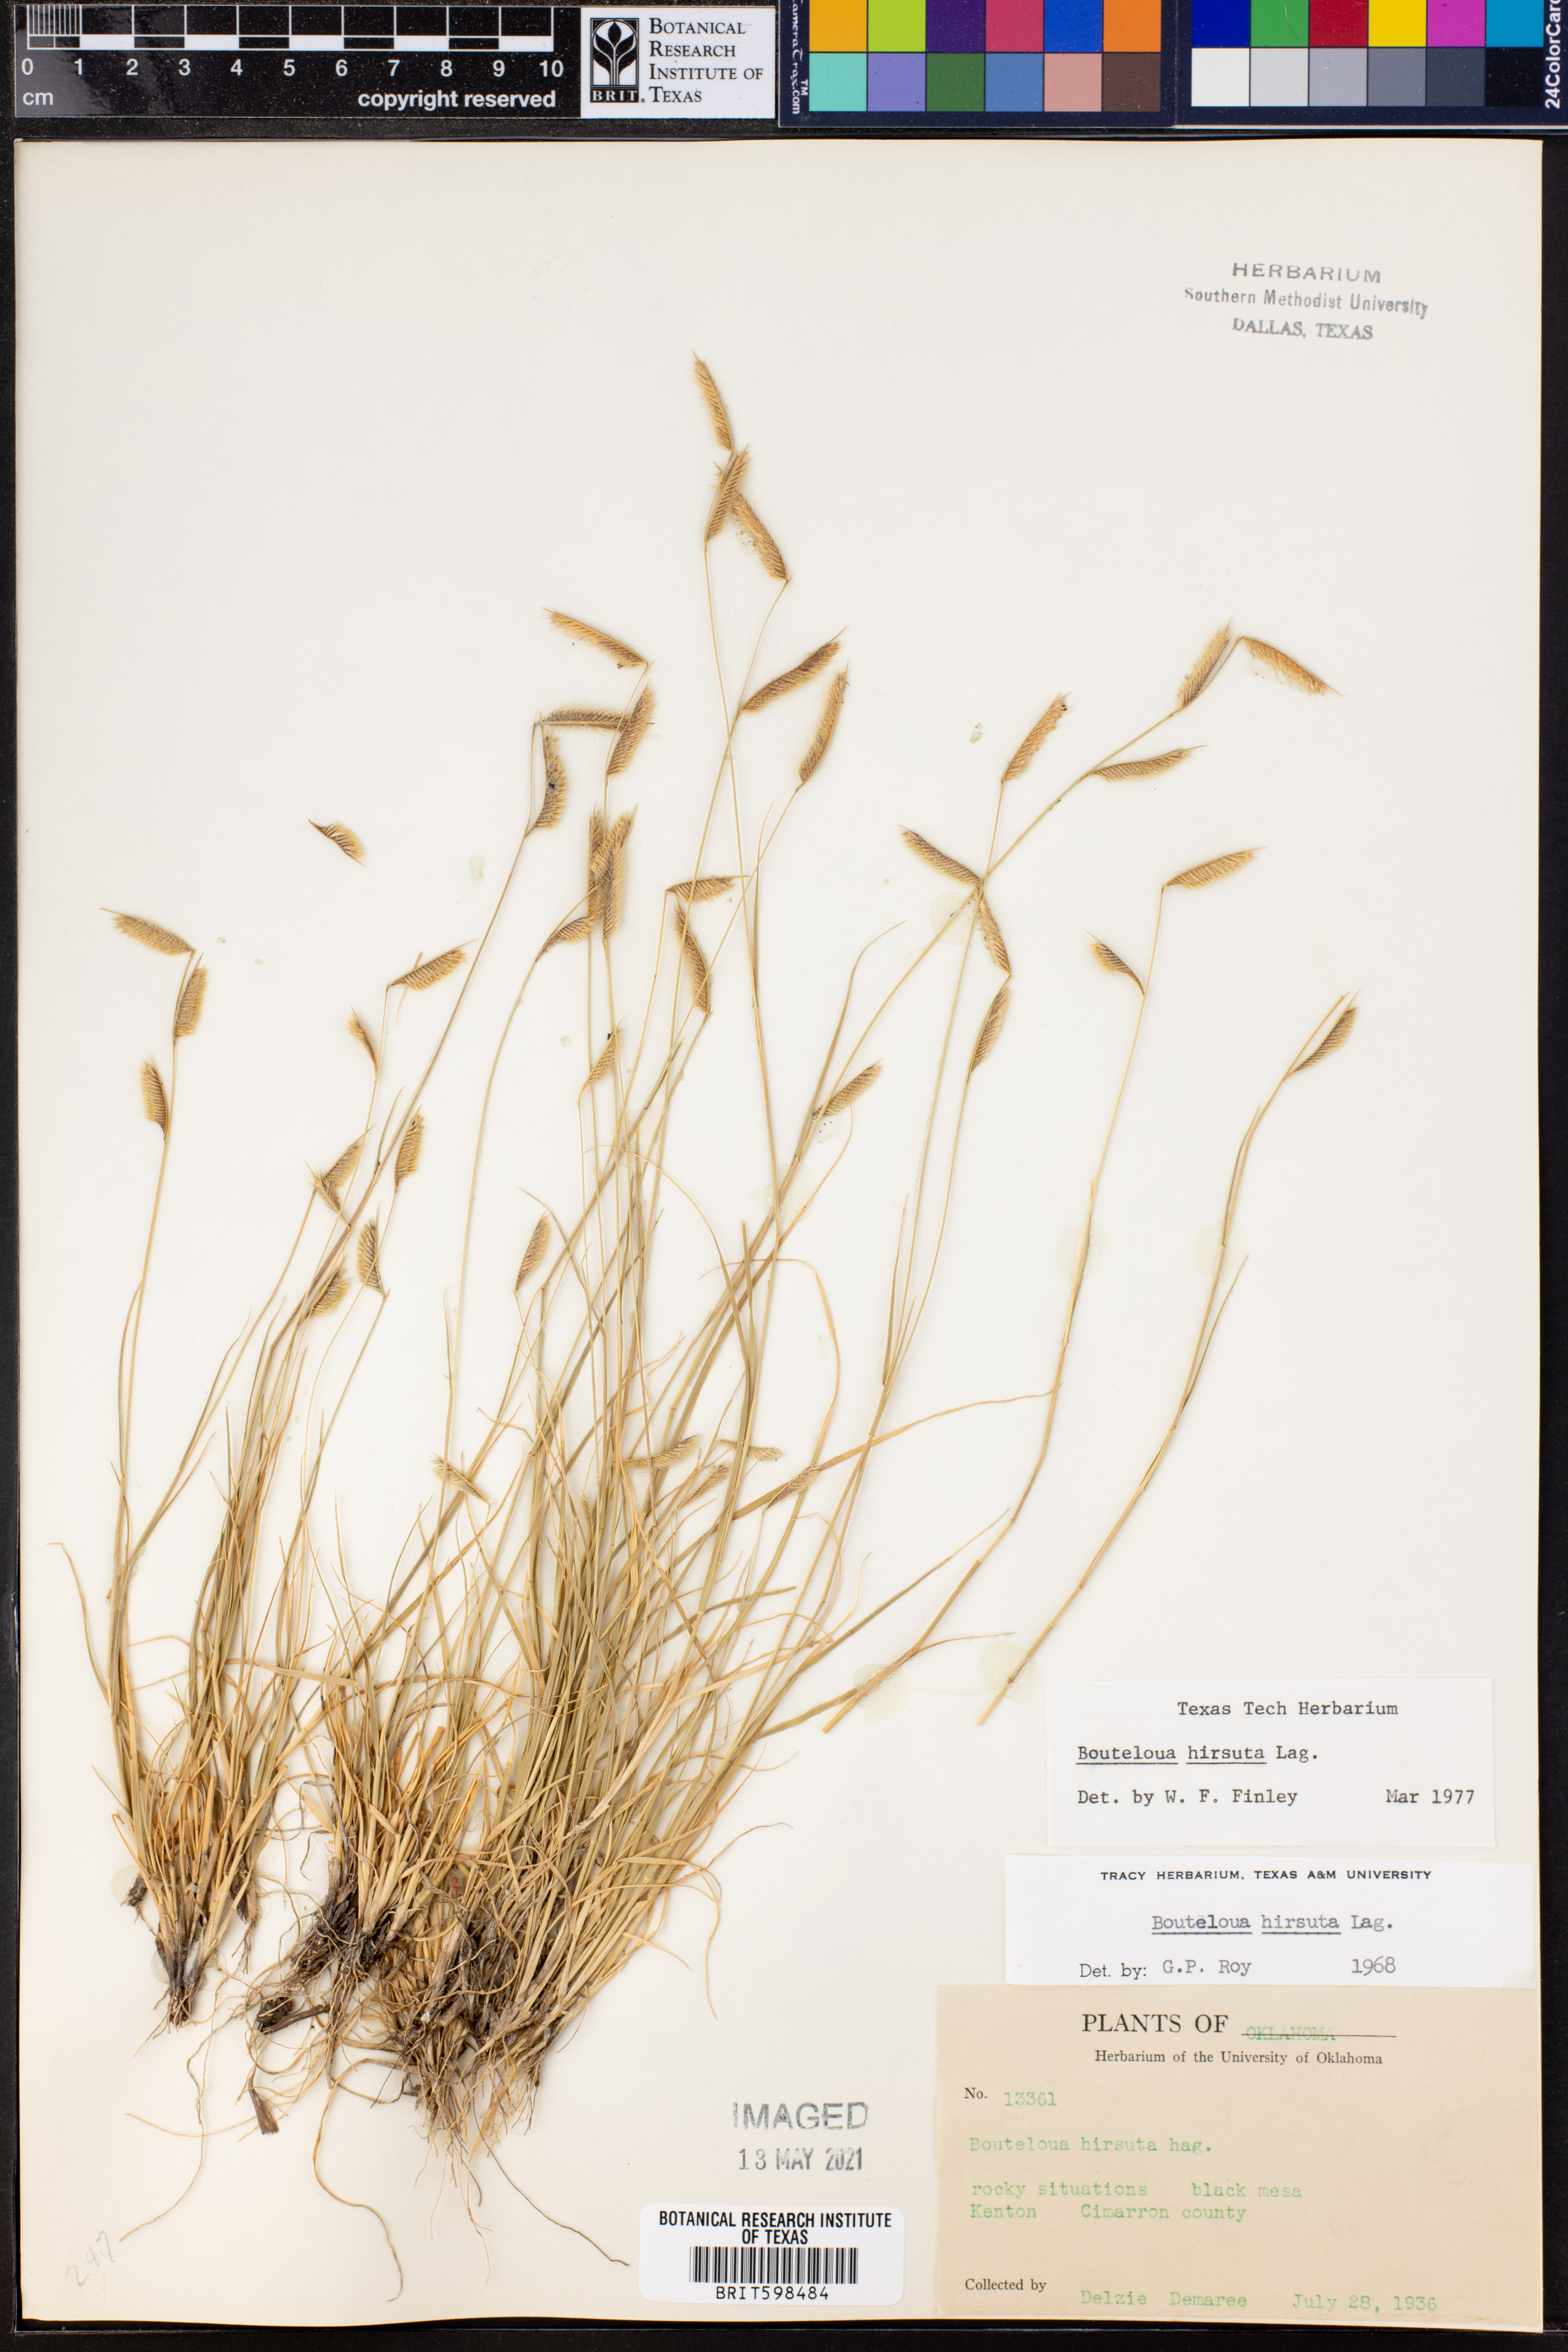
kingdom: Plantae
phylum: Tracheophyta
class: Liliopsida
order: Poales
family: Poaceae
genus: Bouteloua
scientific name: Bouteloua hirsuta
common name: Hairy grama
